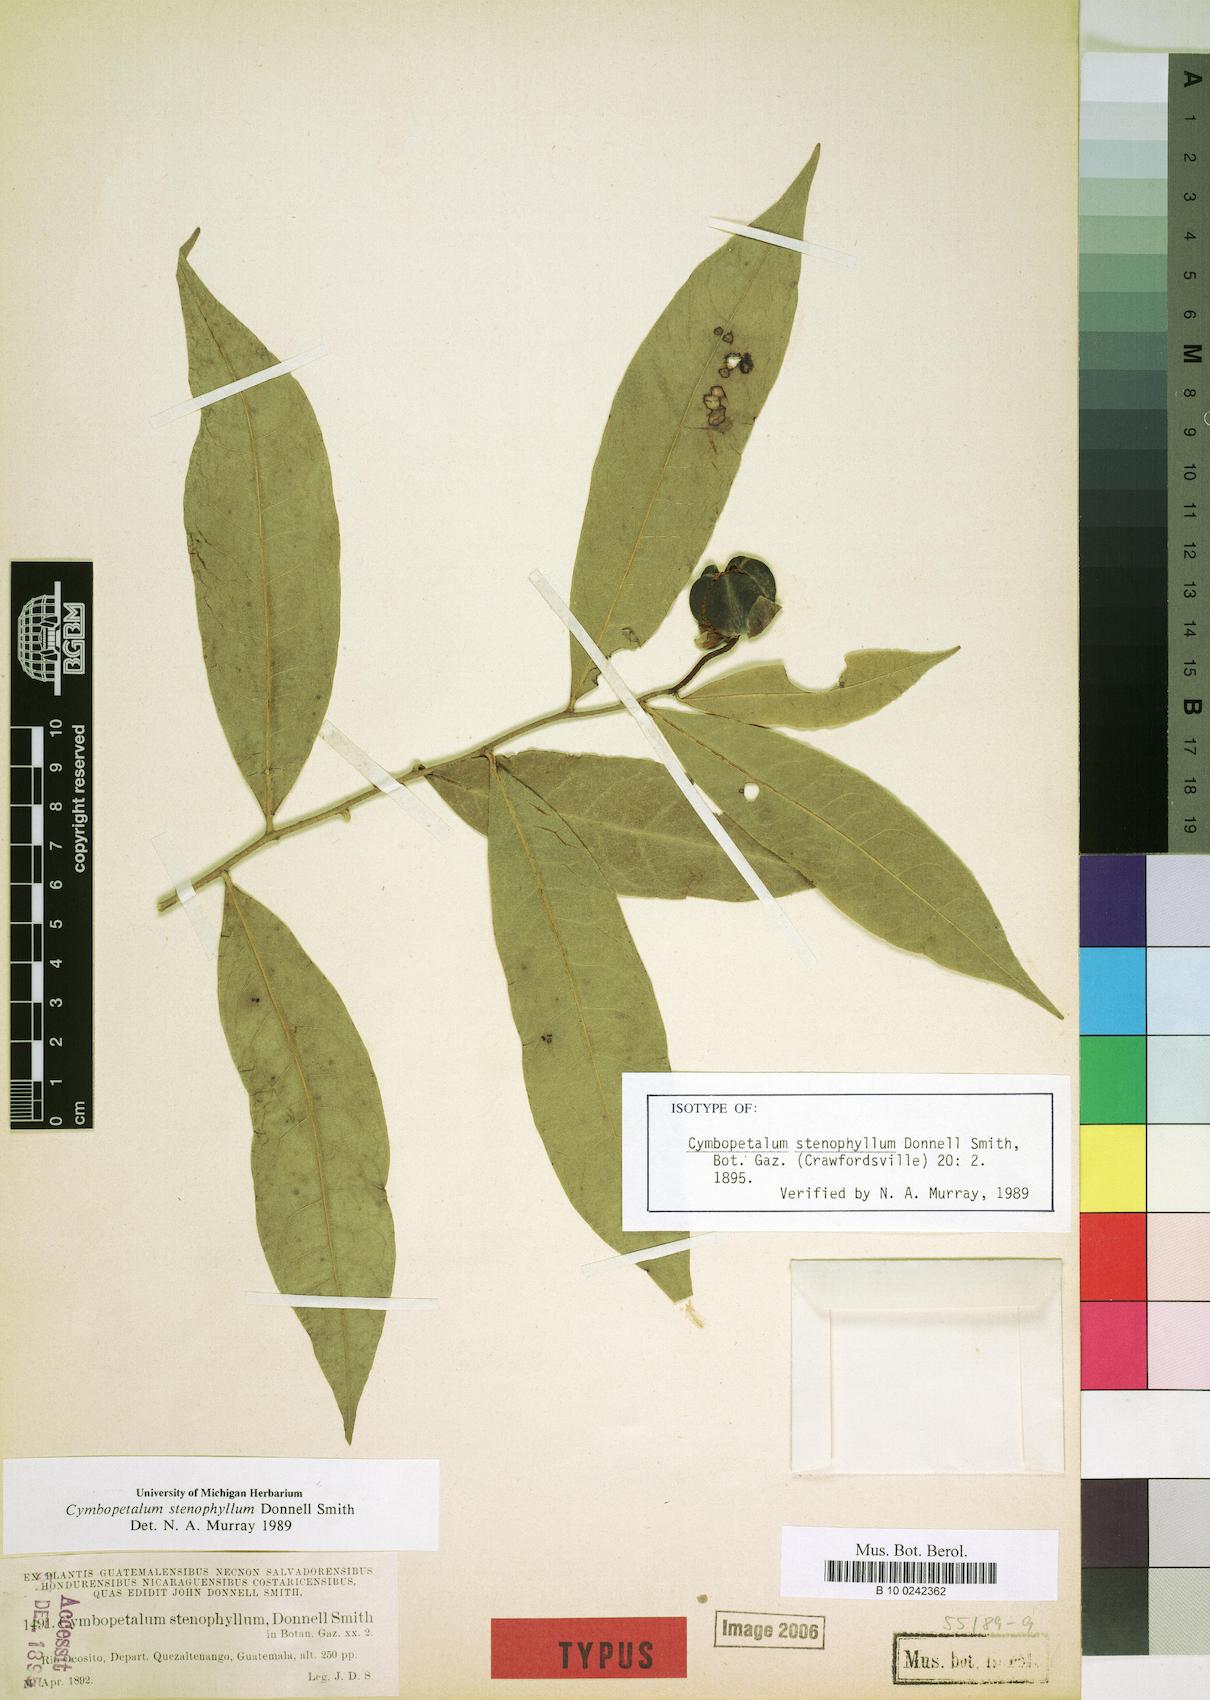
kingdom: Plantae
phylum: Tracheophyta
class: Magnoliopsida
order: Magnoliales
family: Annonaceae
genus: Cymbopetalum
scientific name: Cymbopetalum stenophyllum
